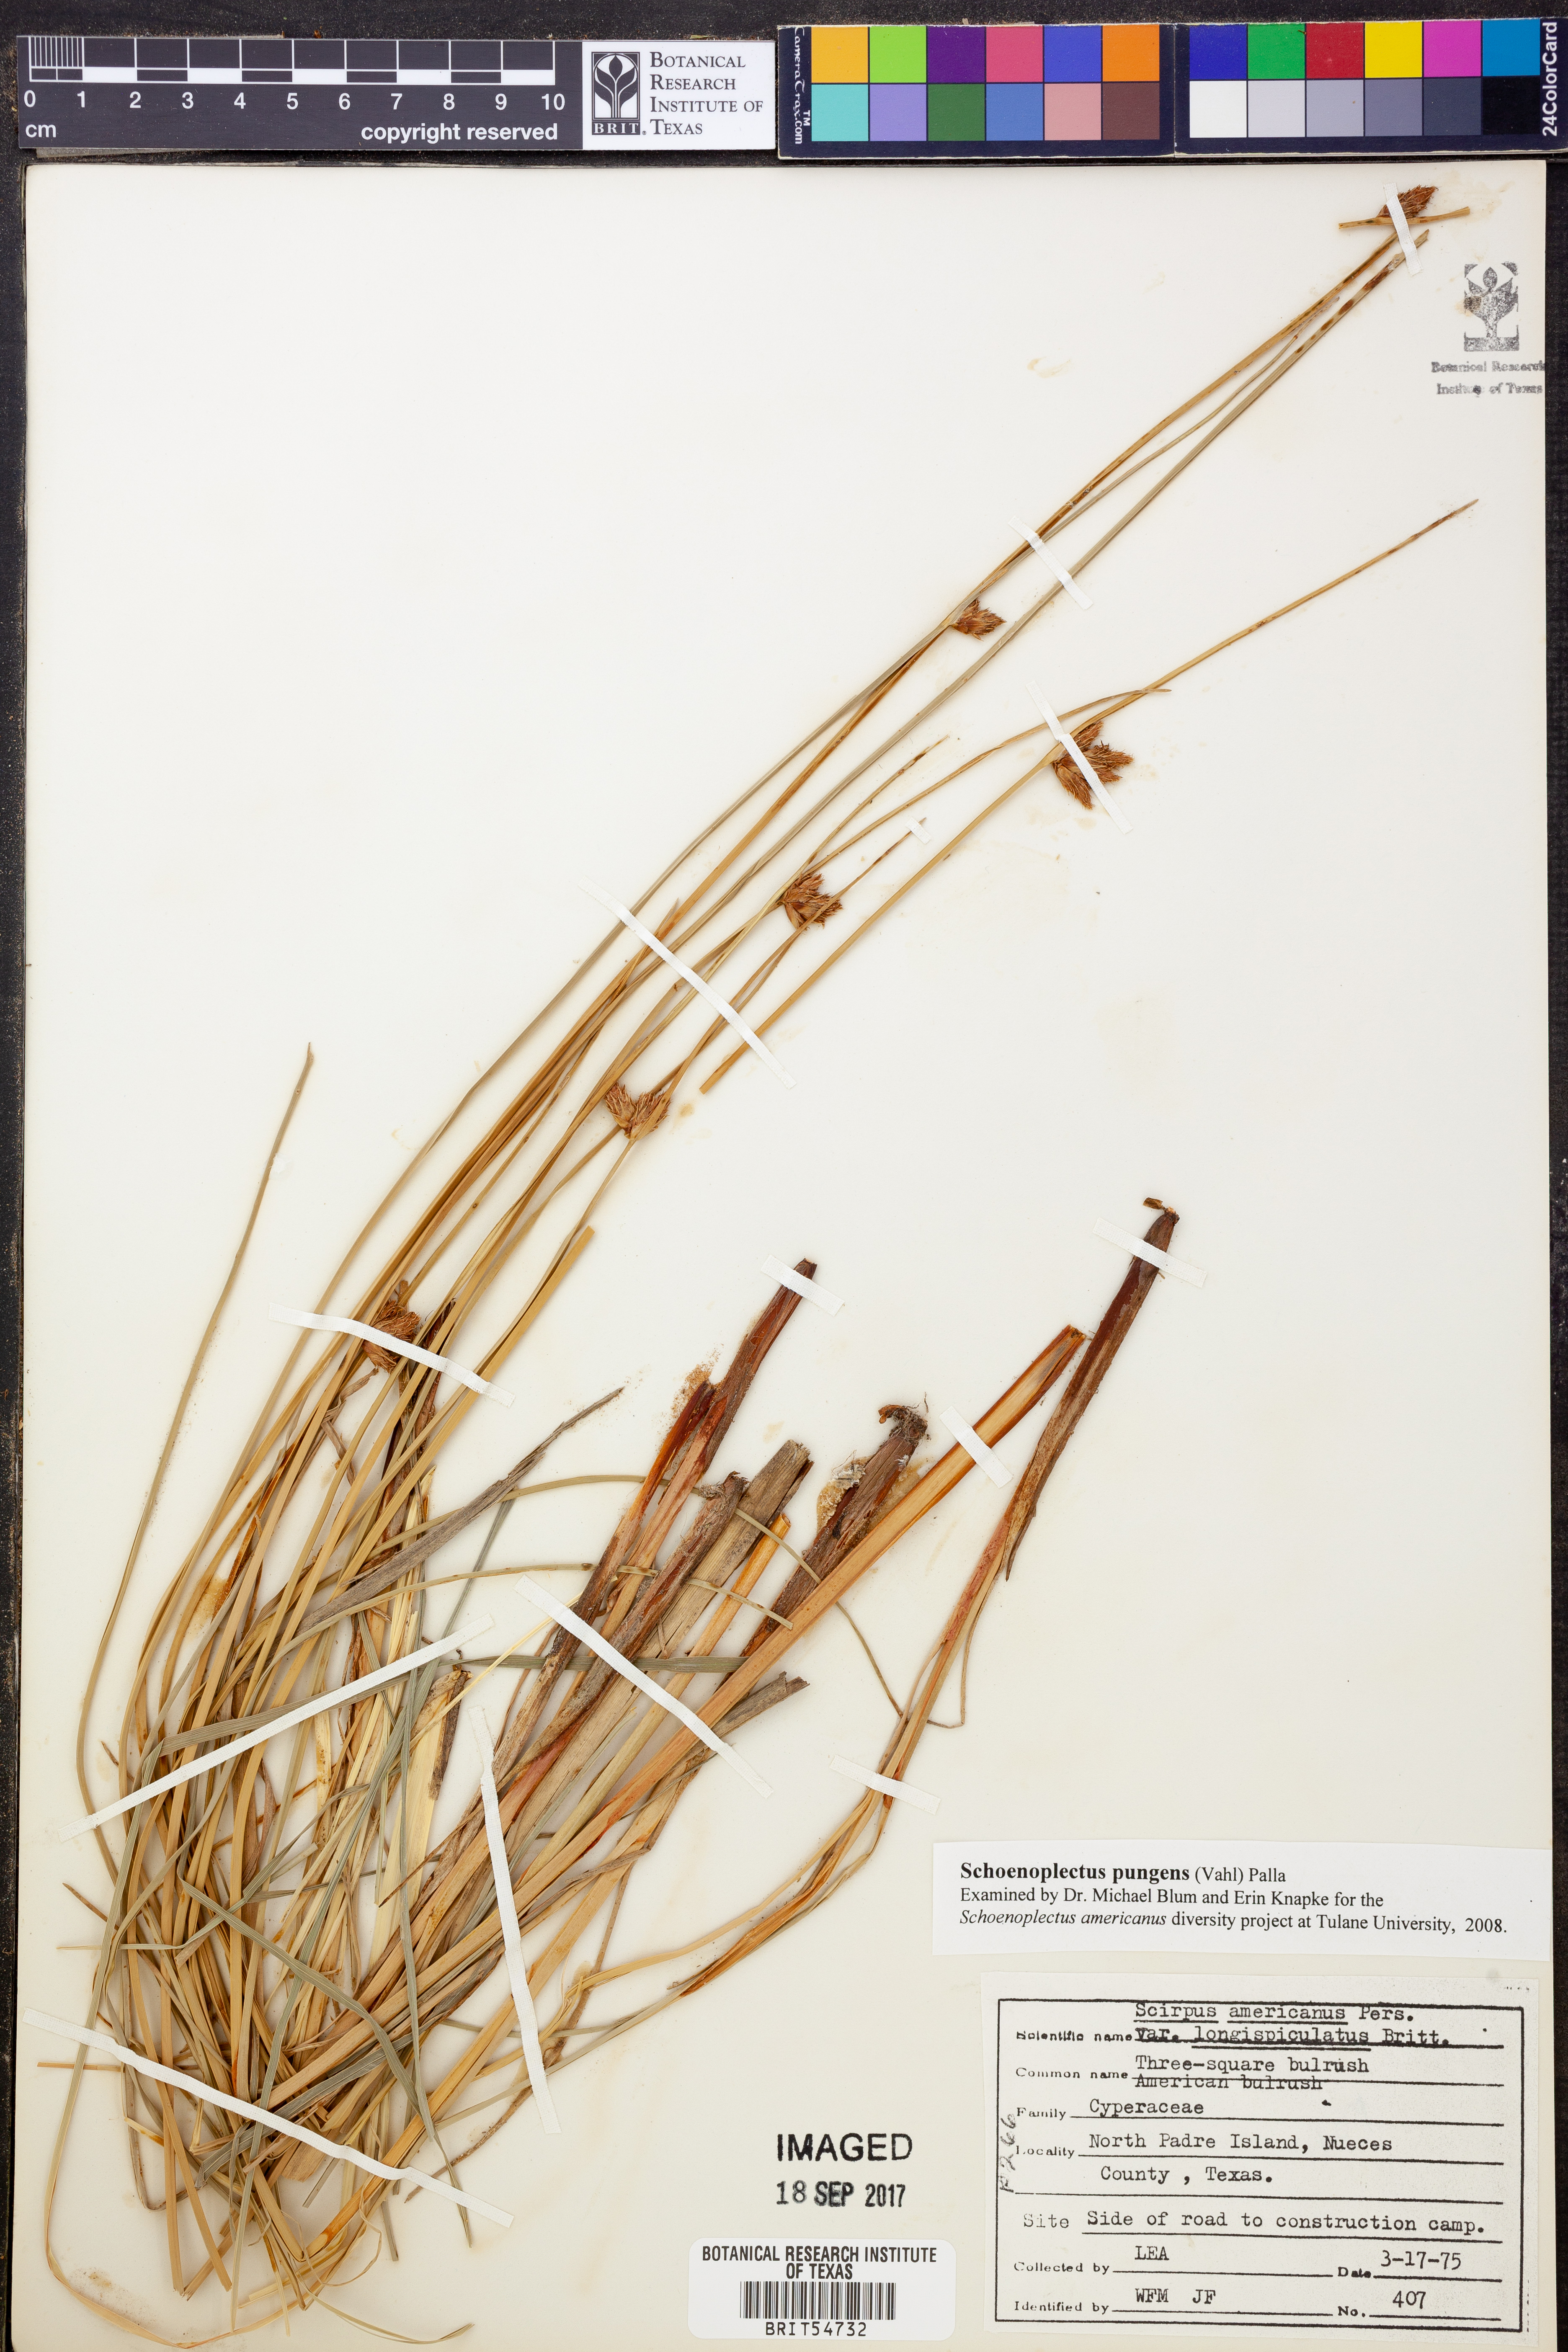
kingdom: Plantae
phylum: Tracheophyta
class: Liliopsida
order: Poales
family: Cyperaceae
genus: Schoenoplectus
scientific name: Schoenoplectus pungens
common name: Sharp club-rush
